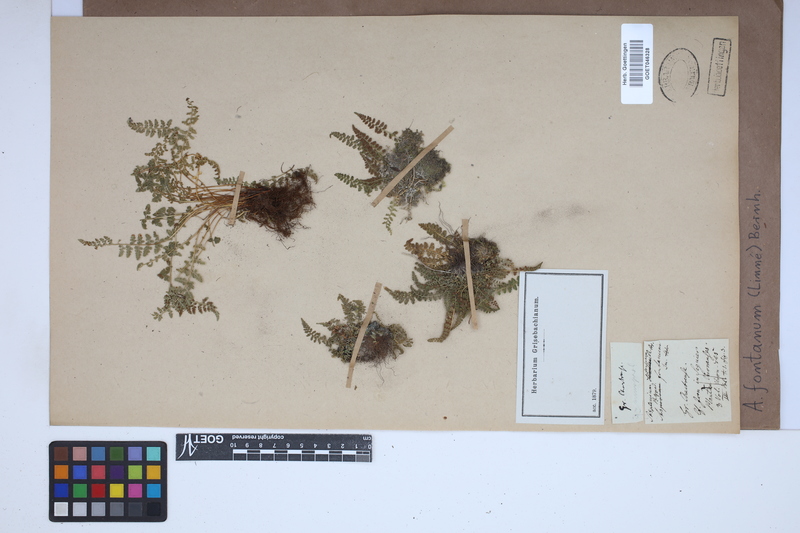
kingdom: Plantae
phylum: Tracheophyta
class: Polypodiopsida
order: Polypodiales
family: Aspleniaceae
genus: Asplenium
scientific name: Asplenium fontanum
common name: Fountain spleenwort
